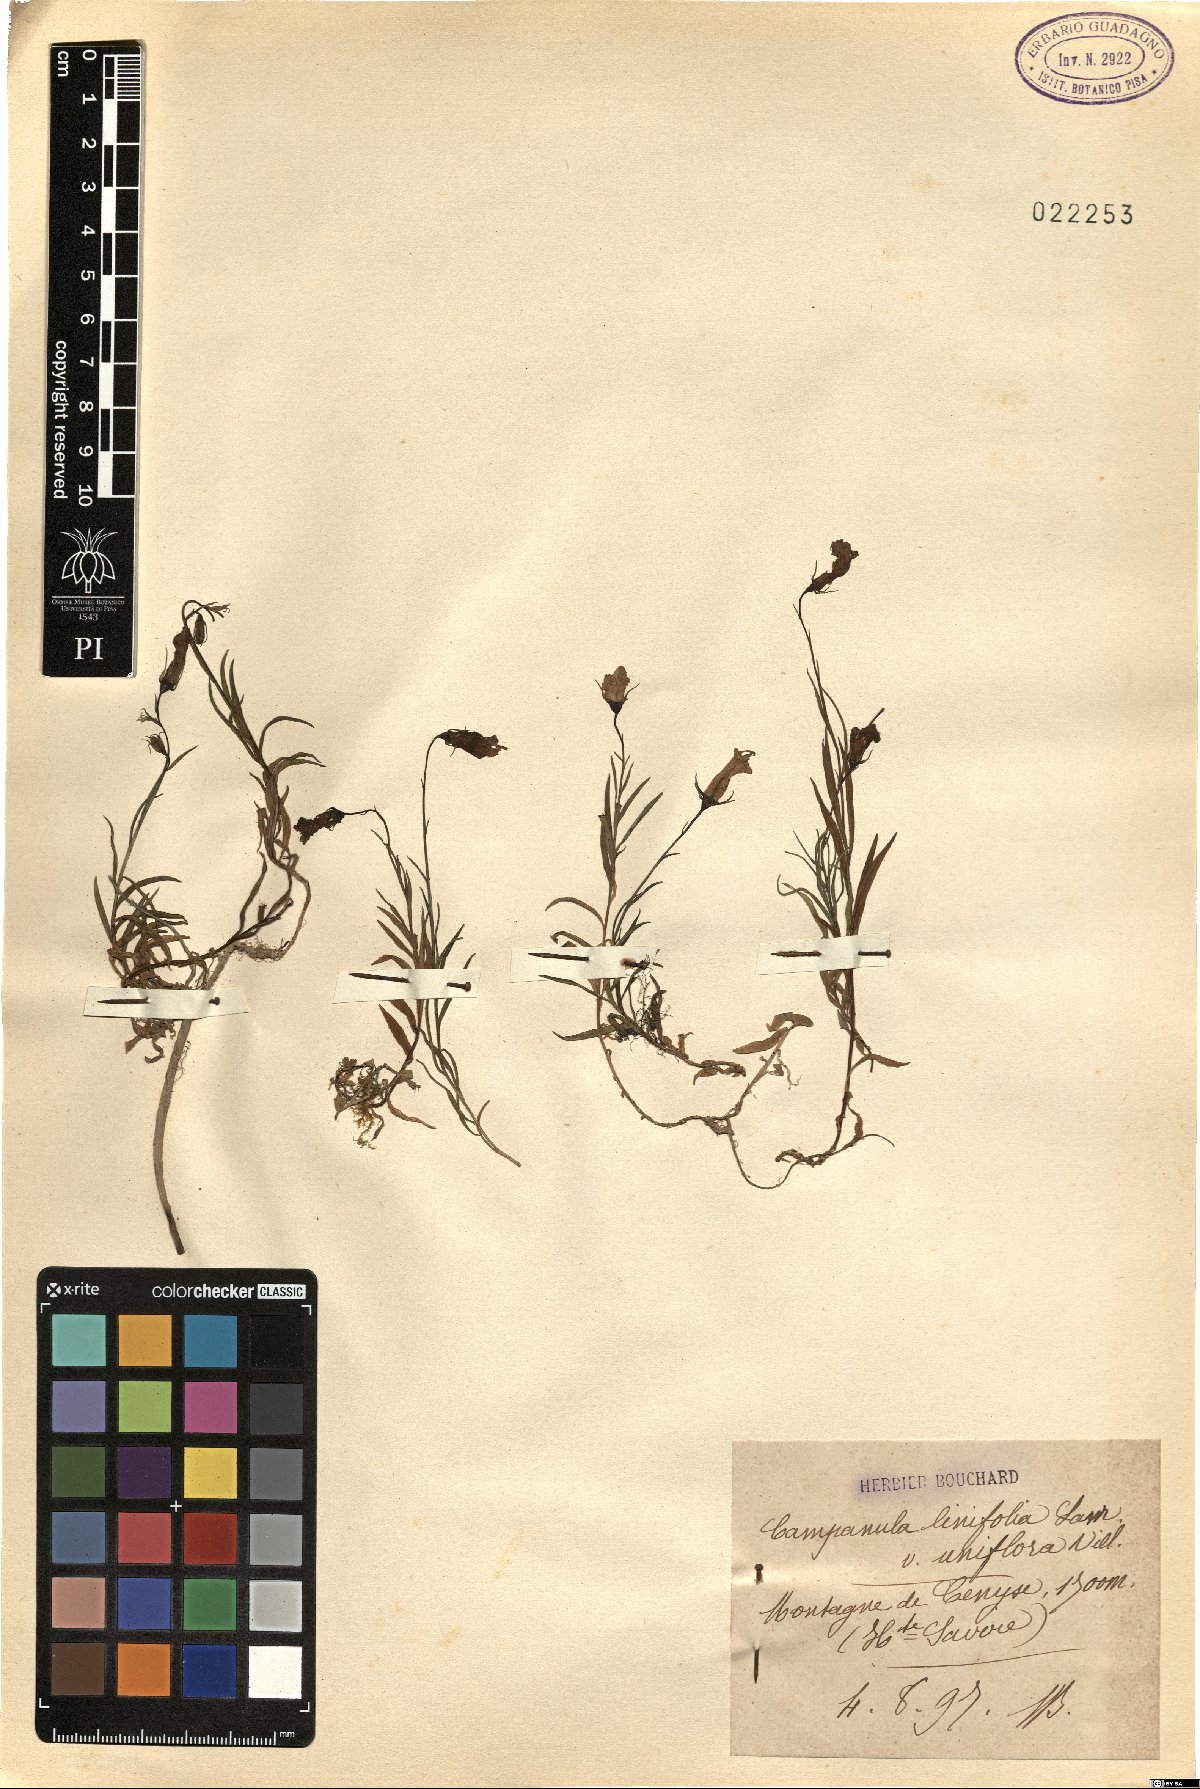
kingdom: Plantae
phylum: Tracheophyta
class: Magnoliopsida
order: Asterales
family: Campanulaceae
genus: Campanula
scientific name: Campanula carnica
